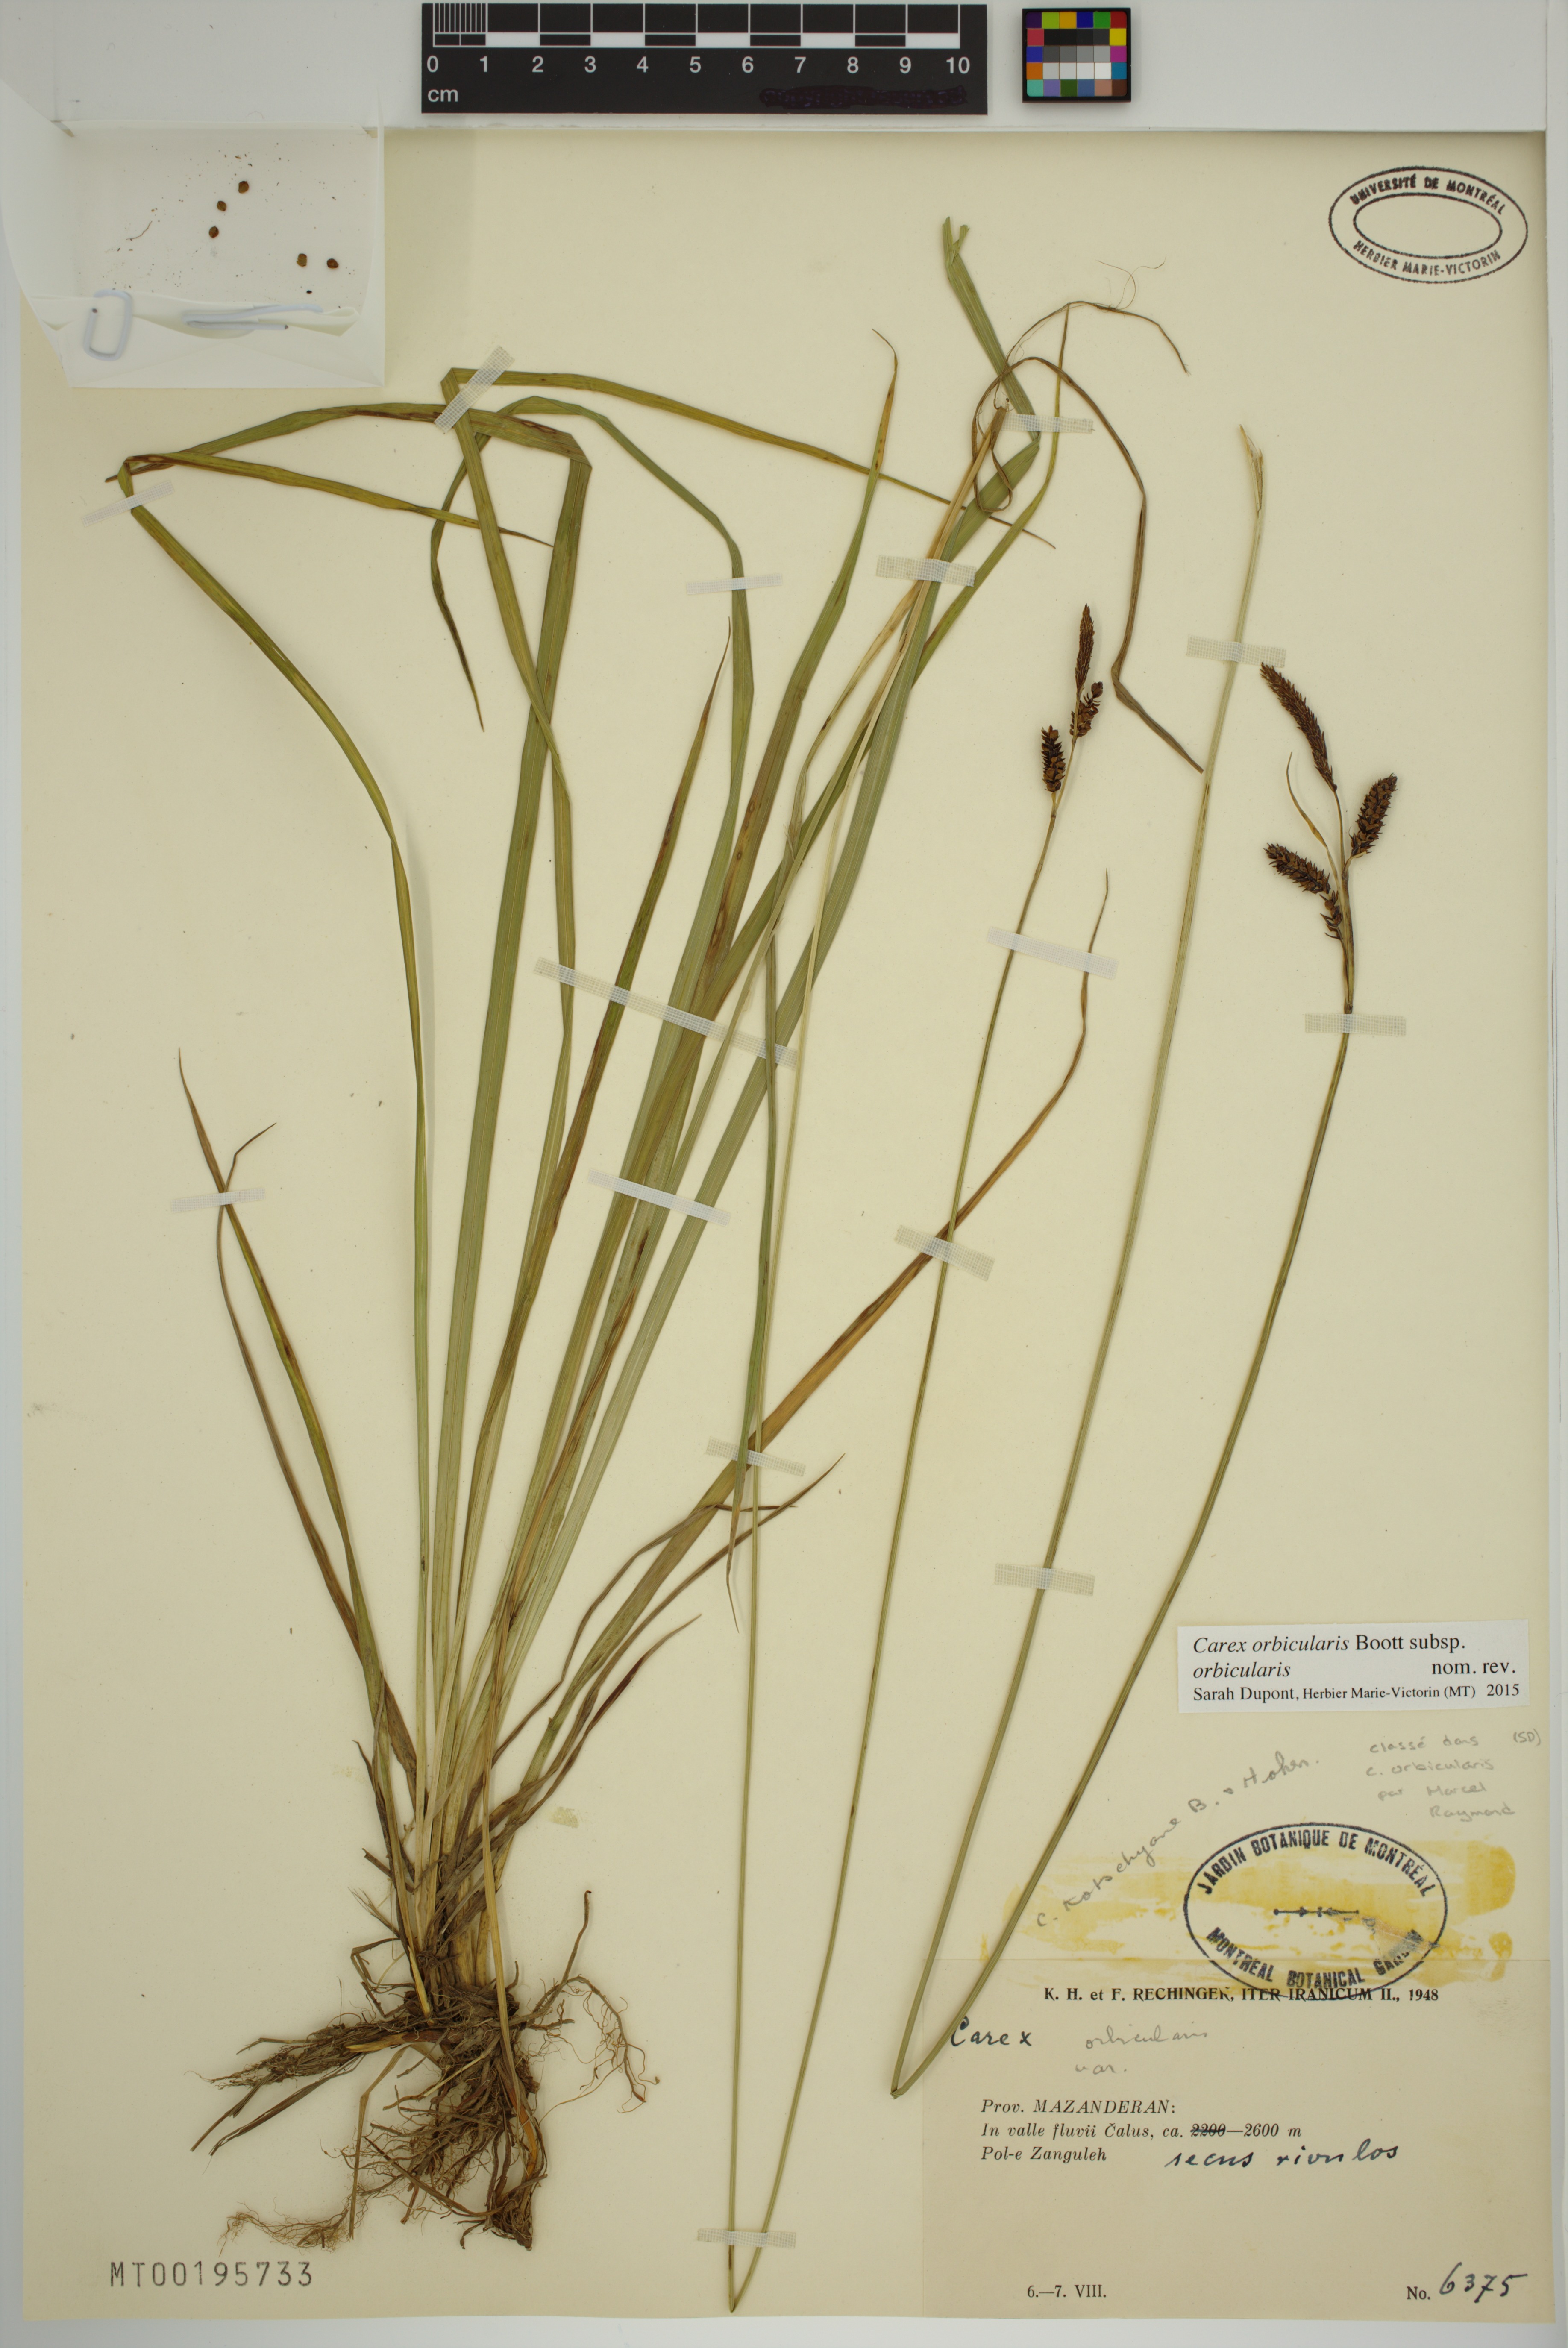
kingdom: Plantae
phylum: Tracheophyta
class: Liliopsida
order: Poales
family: Cyperaceae
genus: Carex
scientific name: Carex orbicularis
